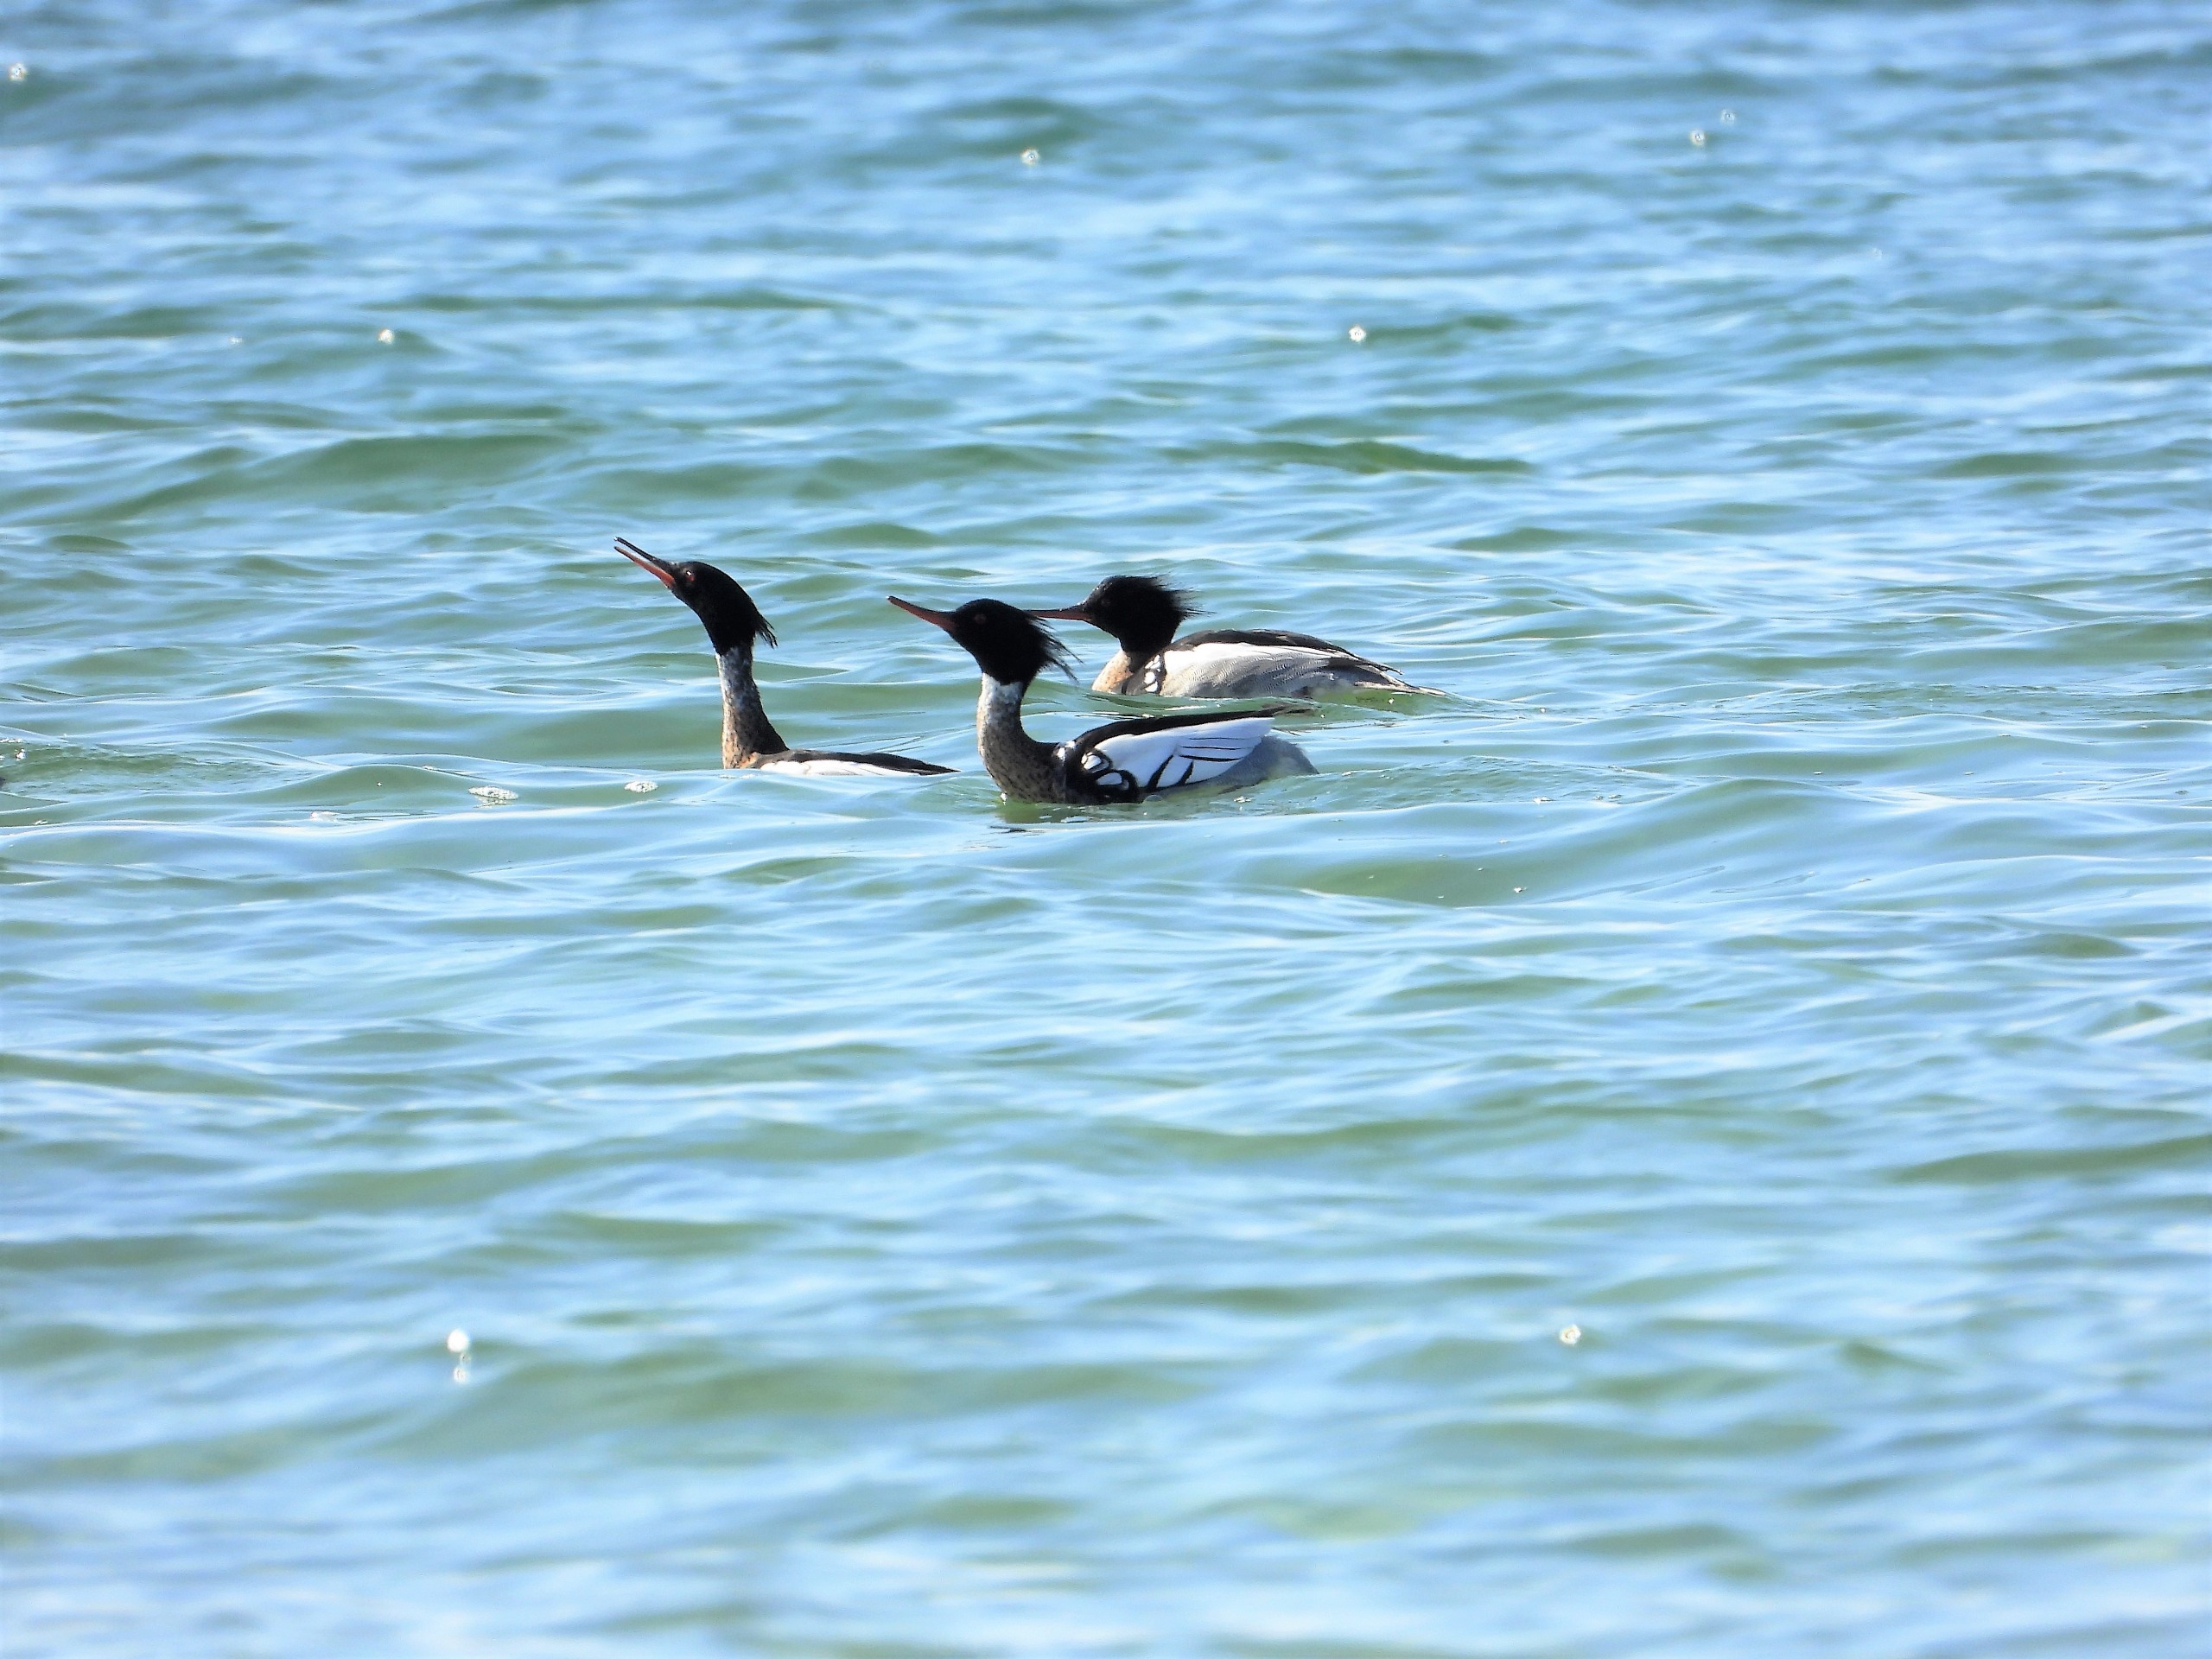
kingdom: Animalia
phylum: Chordata
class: Aves
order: Anseriformes
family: Anatidae
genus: Mergus
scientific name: Mergus serrator
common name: Toppet skallesluger
